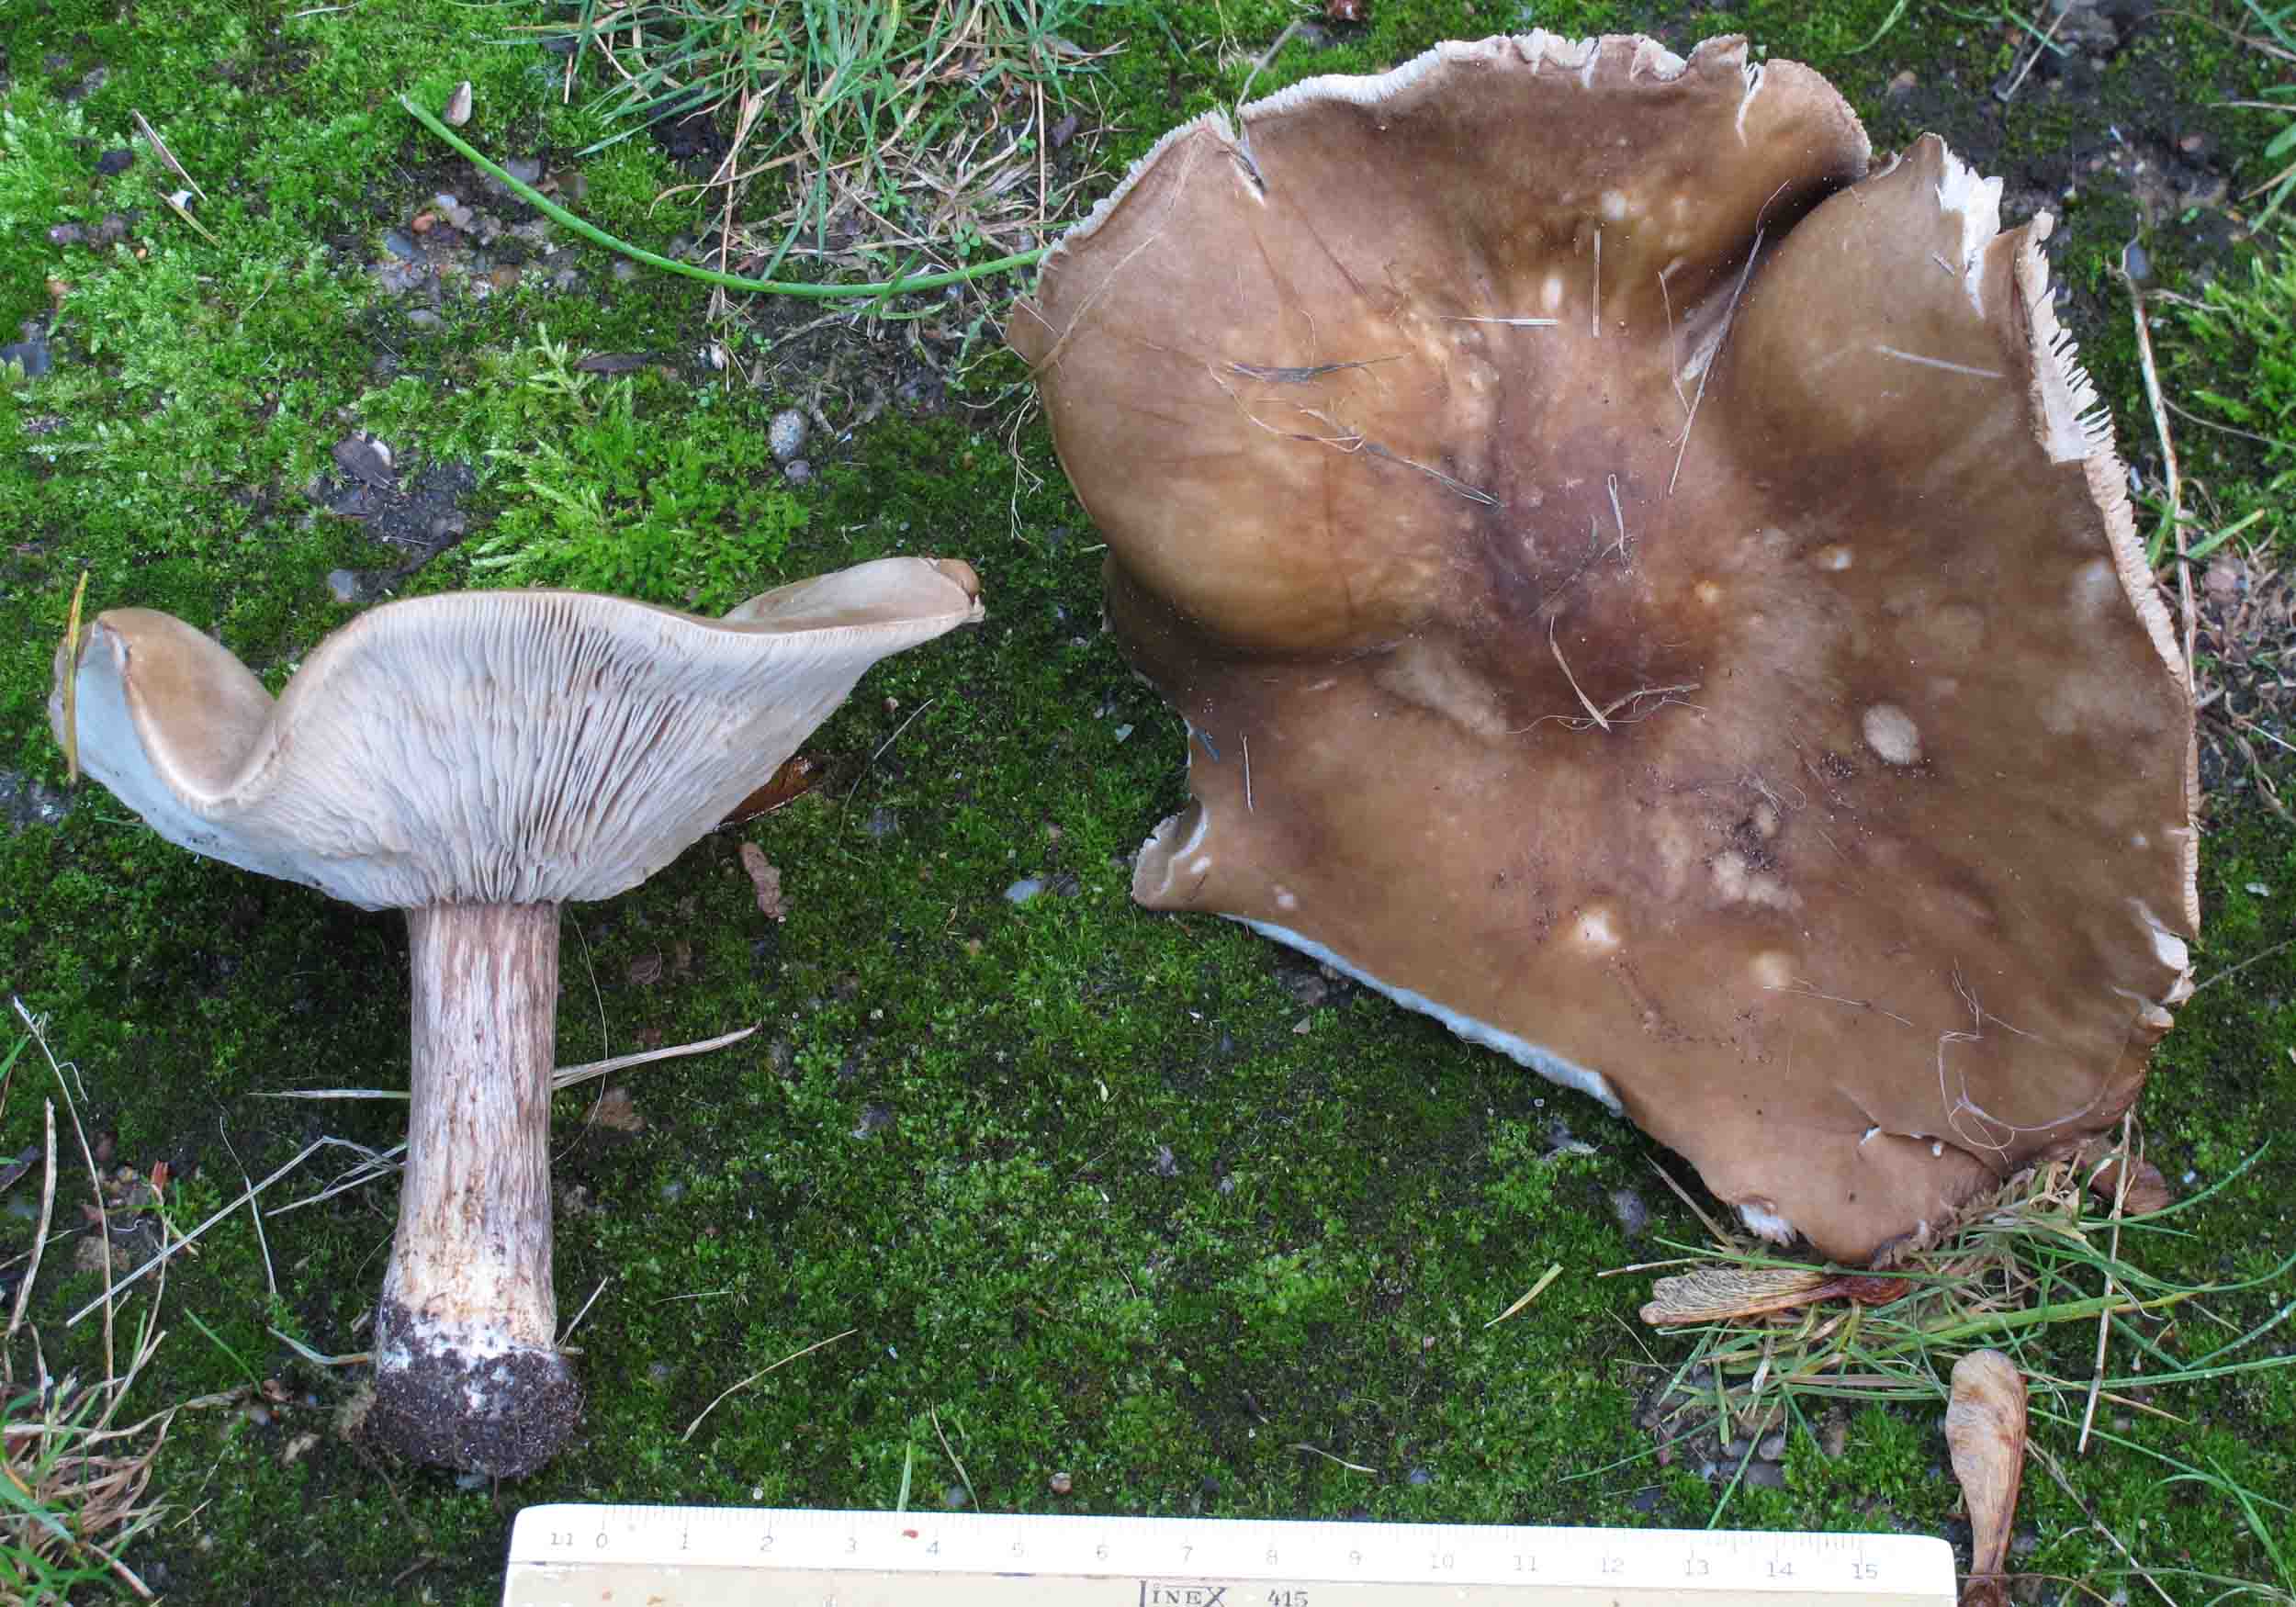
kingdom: Fungi
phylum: Basidiomycota
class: Agaricomycetes
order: Agaricales
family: Tricholomataceae
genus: Melanoleuca
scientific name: Melanoleuca grammopodia
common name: stribestokket munkehat
